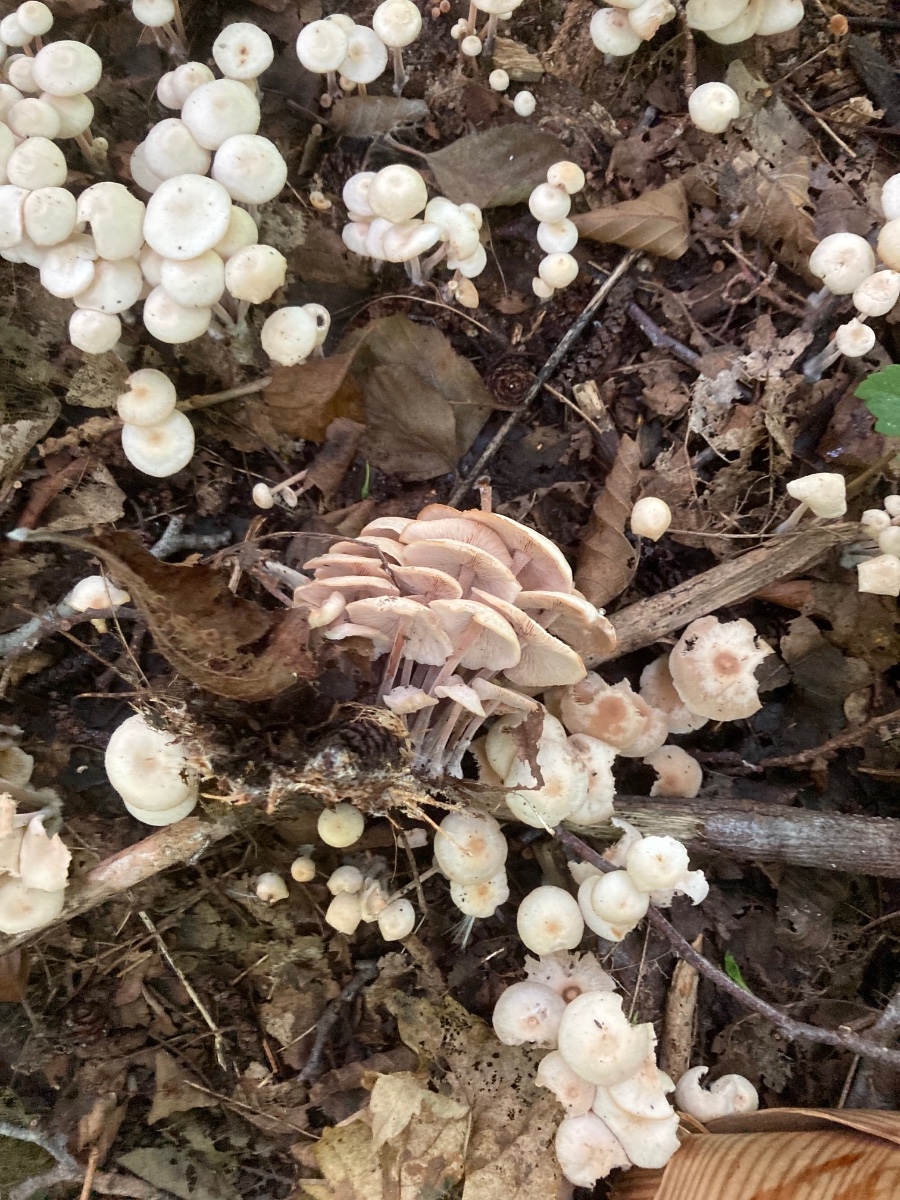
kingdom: Fungi
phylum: Basidiomycota
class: Agaricomycetes
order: Agaricales
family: Omphalotaceae
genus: Collybiopsis
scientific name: Collybiopsis confluens
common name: knippe-fladhat
